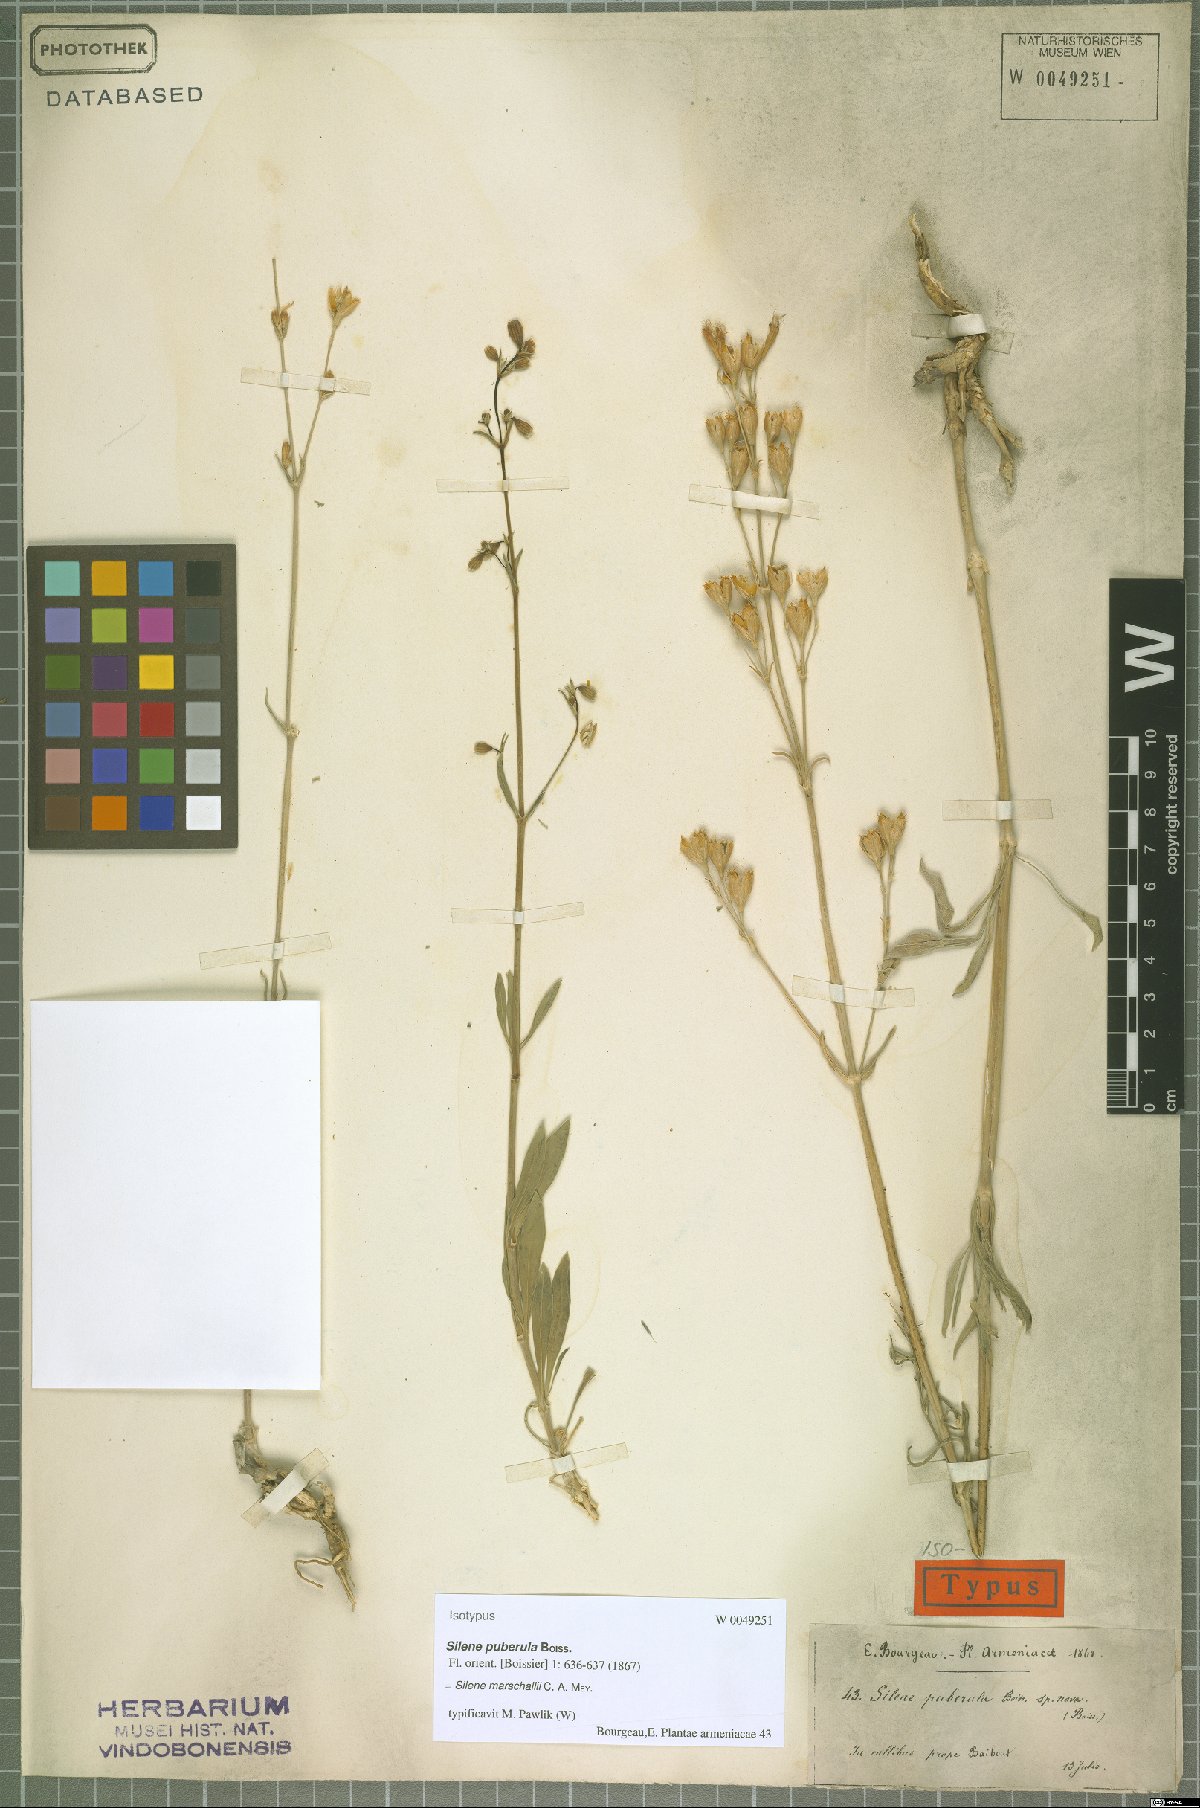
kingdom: Plantae
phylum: Tracheophyta
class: Magnoliopsida
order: Caryophyllales
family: Caryophyllaceae
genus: Silene
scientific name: Silene marschallii
